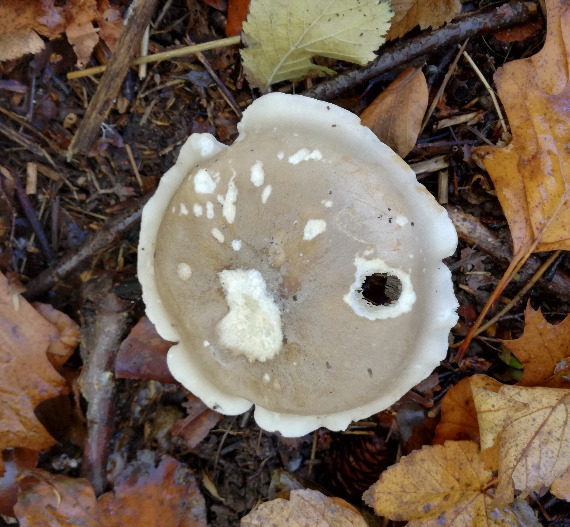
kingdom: Fungi
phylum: Basidiomycota
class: Agaricomycetes
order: Agaricales
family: Tricholomataceae
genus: Clitocybe
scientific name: Clitocybe nebularis
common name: tåge-tragthat
